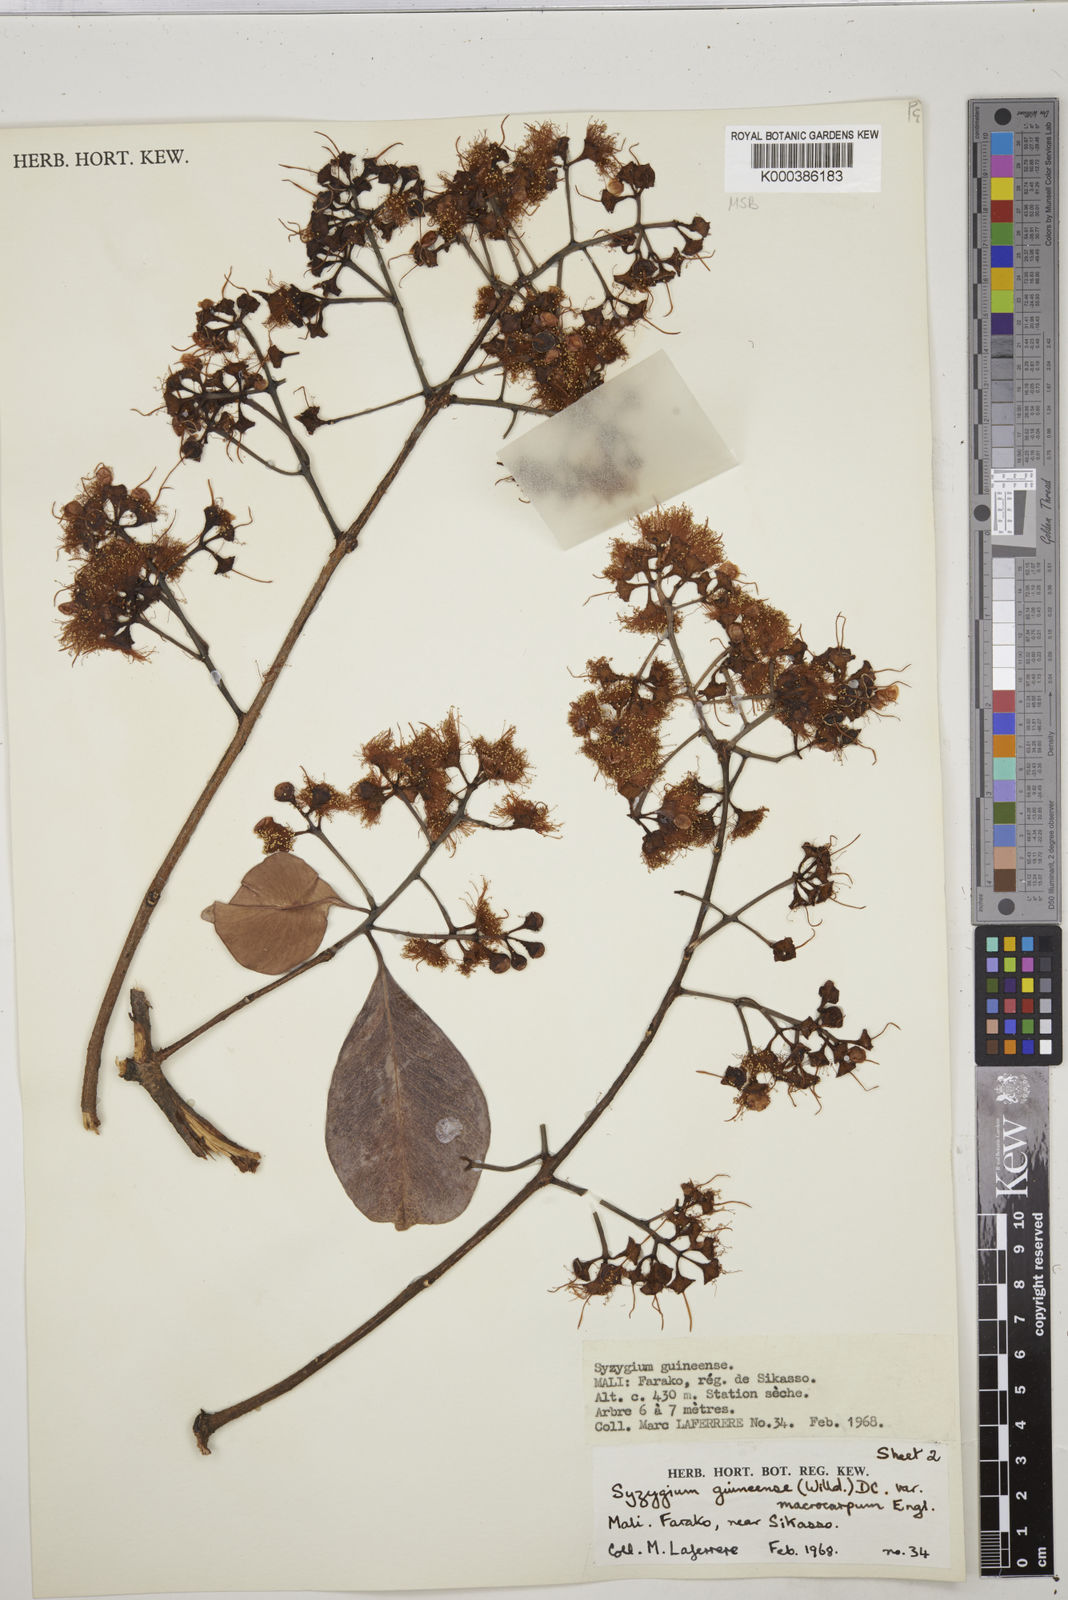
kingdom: Plantae
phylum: Tracheophyta
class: Magnoliopsida
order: Myrtales
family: Myrtaceae
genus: Syzygium
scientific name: Syzygium guineense
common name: Water-pear
